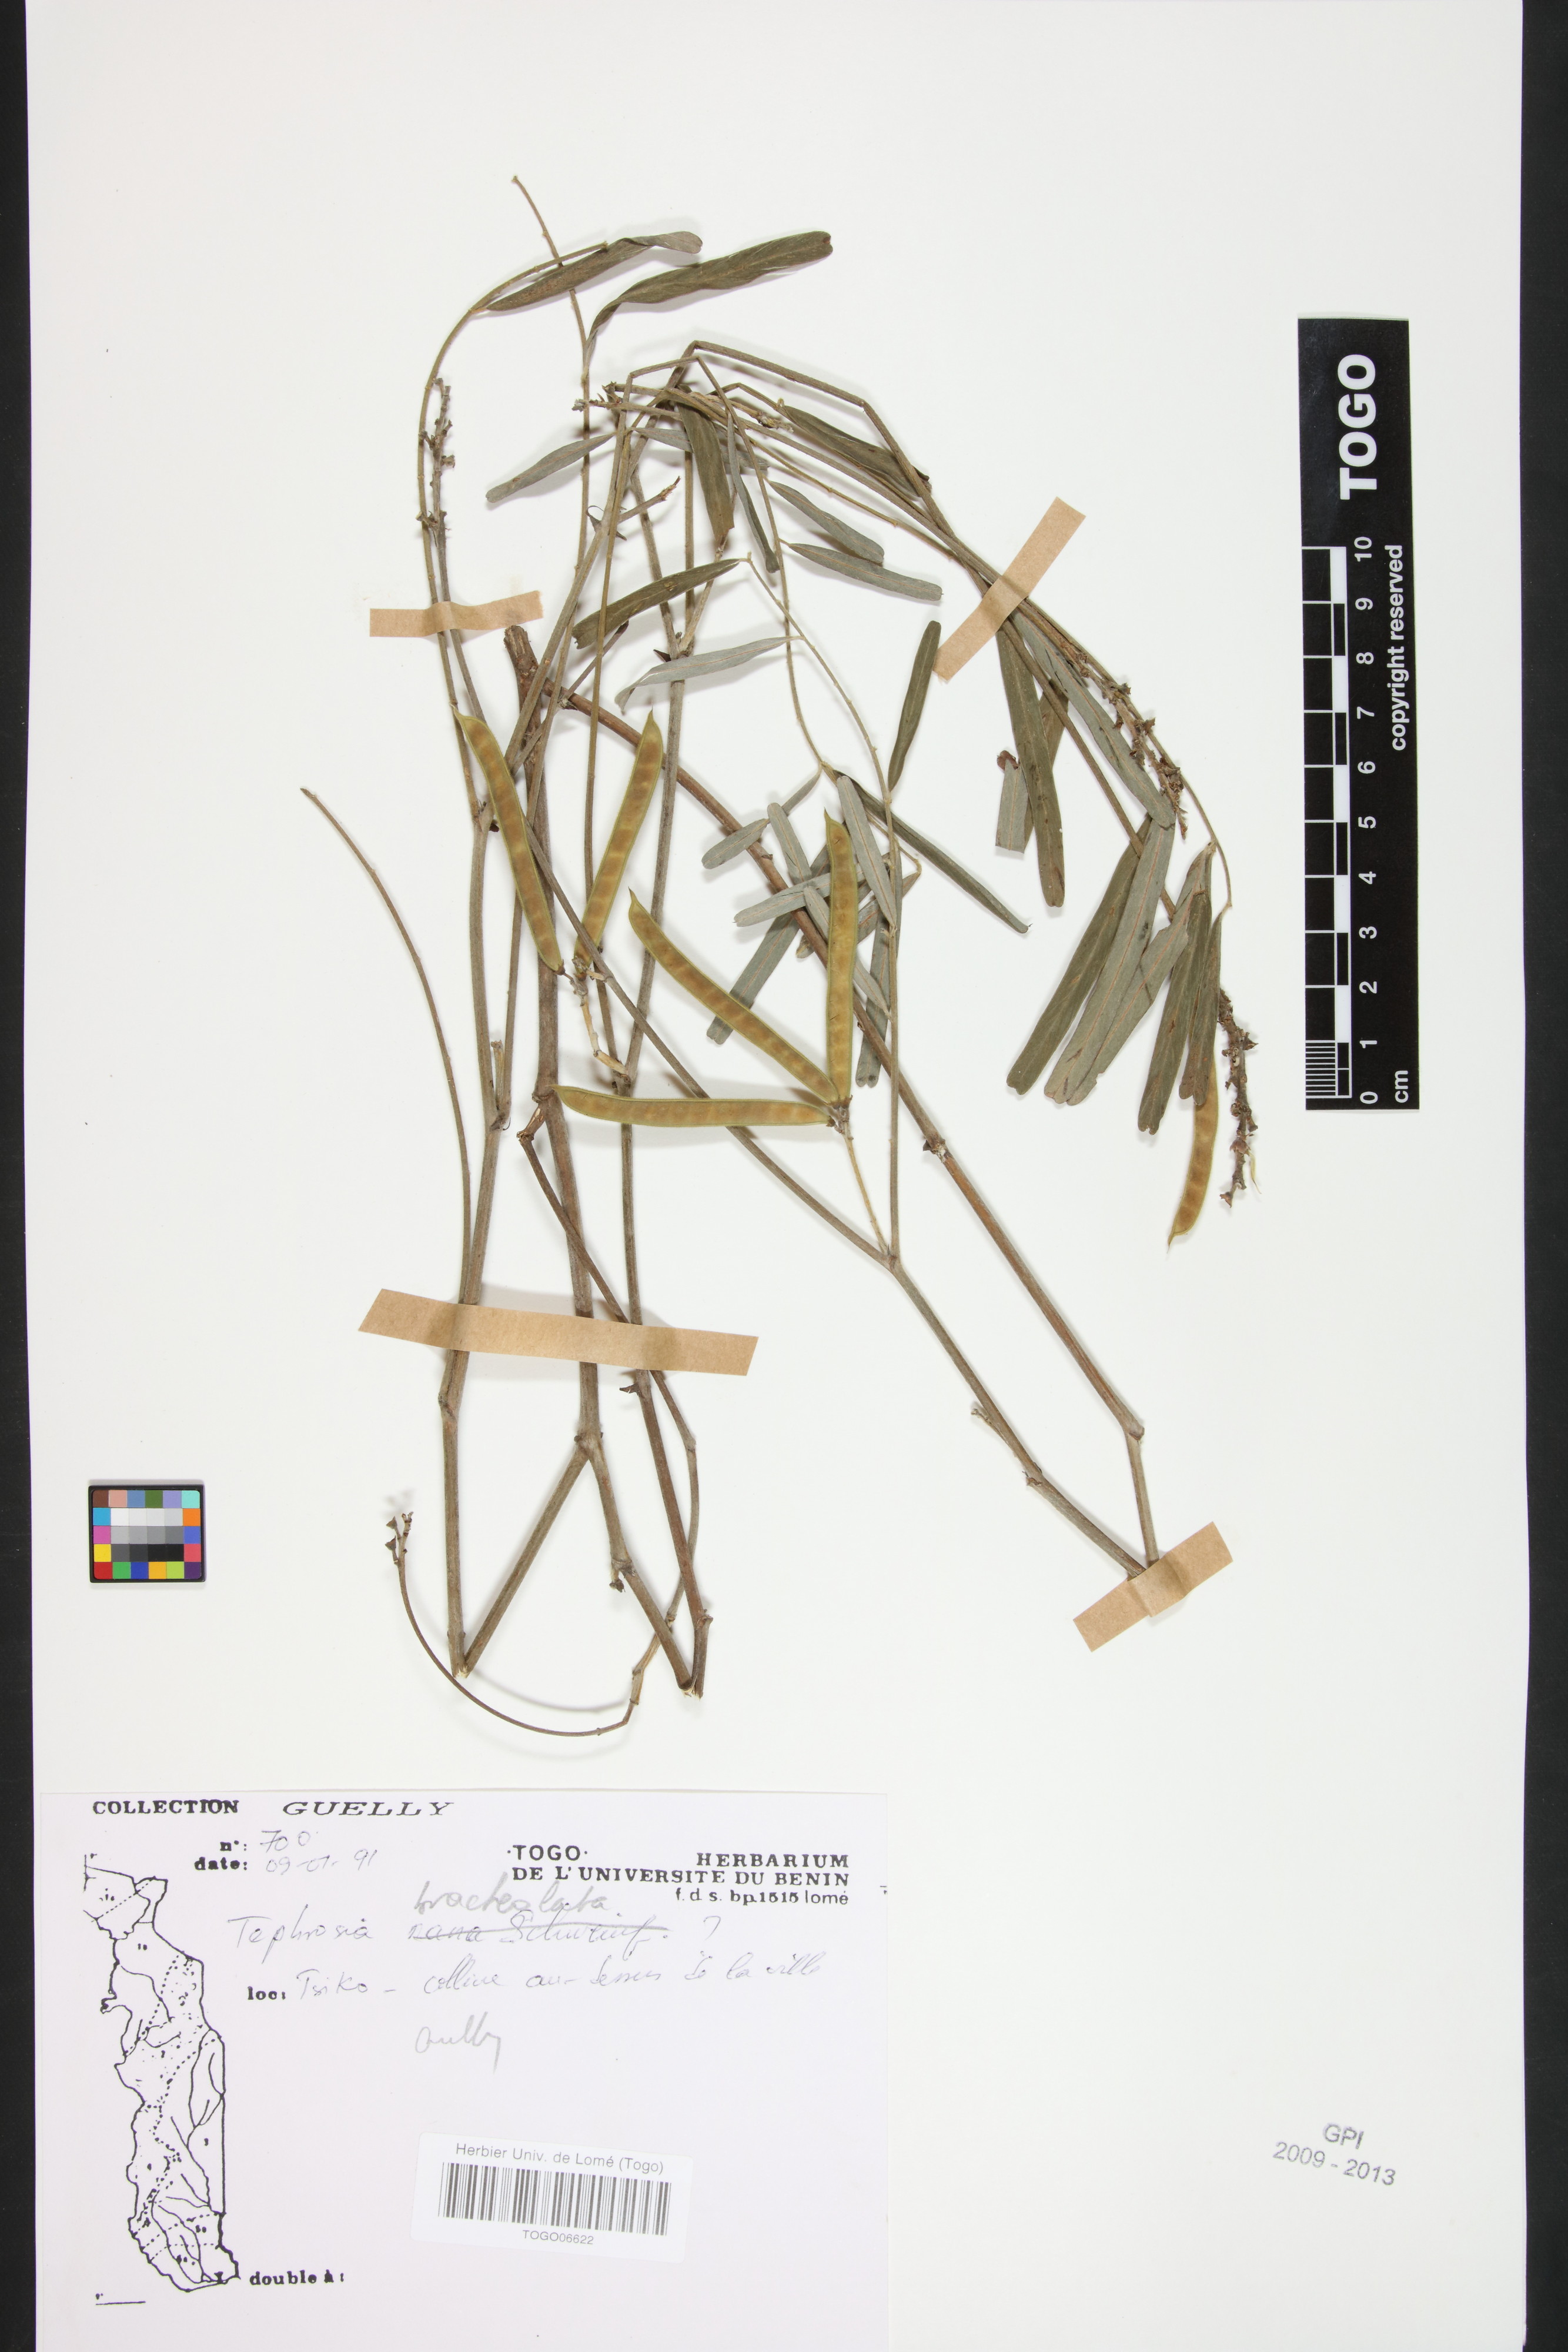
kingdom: Plantae
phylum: Tracheophyta
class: Magnoliopsida
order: Fabales
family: Fabaceae
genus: Tephrosia
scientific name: Tephrosia bracteolata
